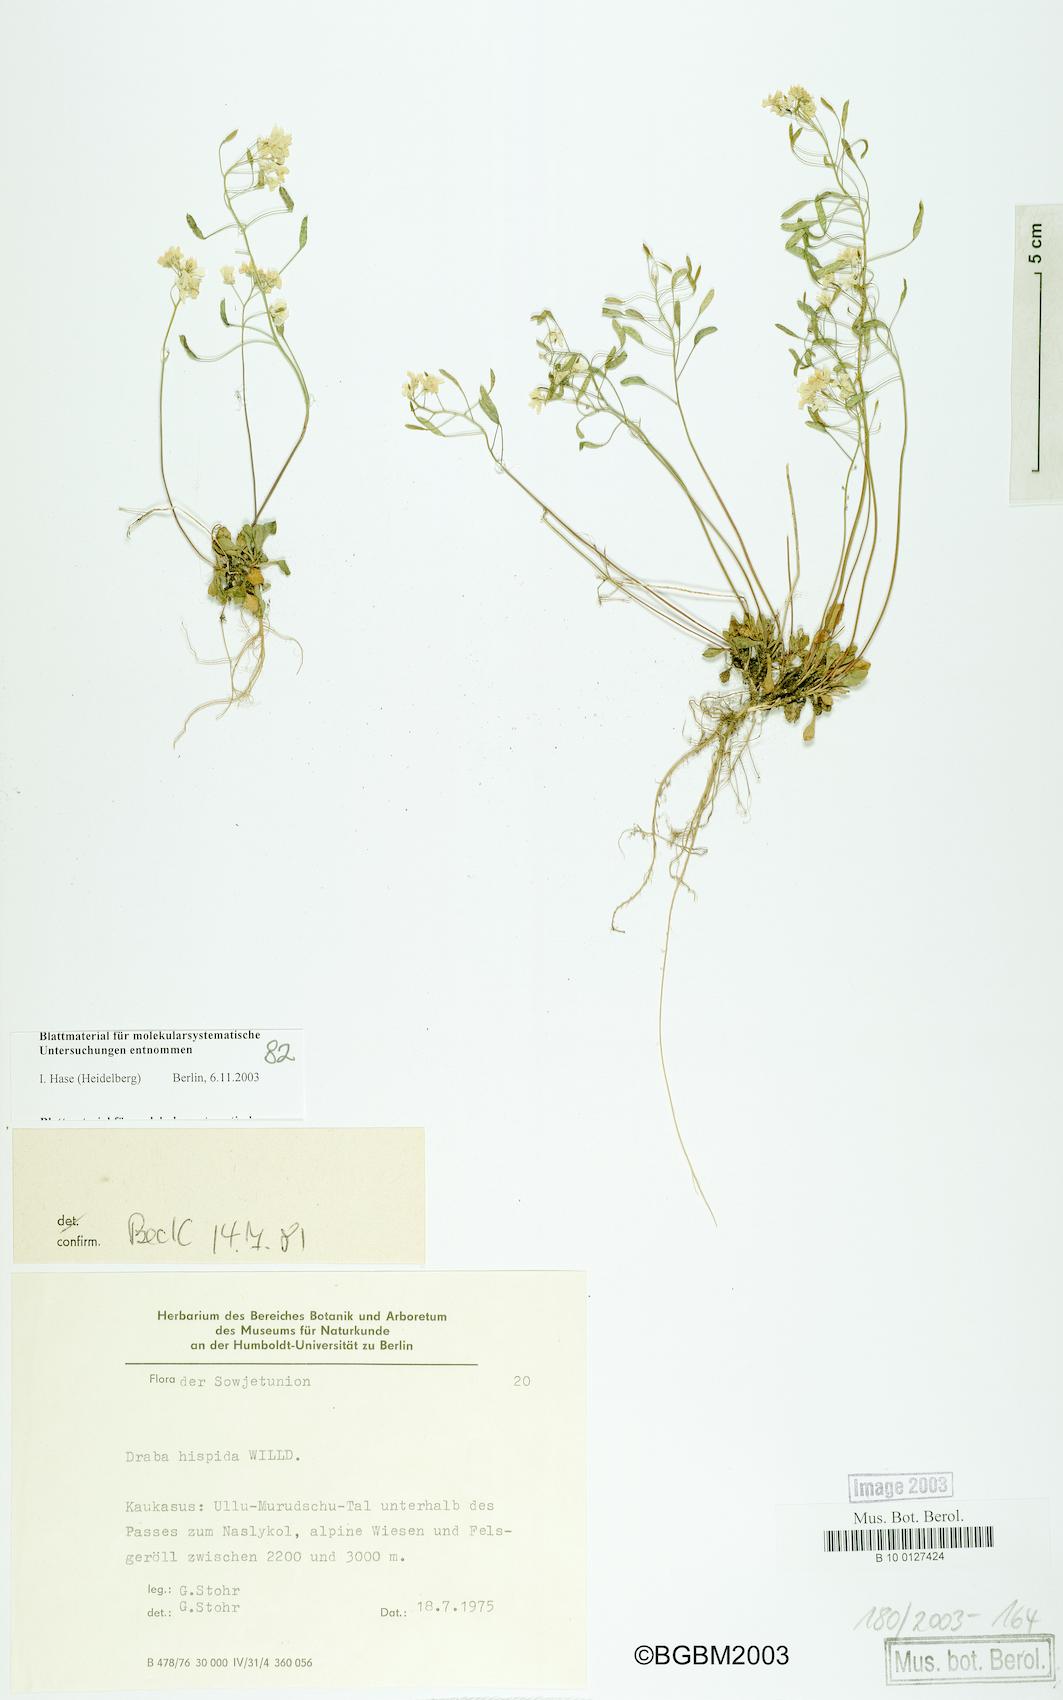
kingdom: Plantae
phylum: Tracheophyta
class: Magnoliopsida
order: Brassicales
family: Brassicaceae
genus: Draba
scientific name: Draba hispida
